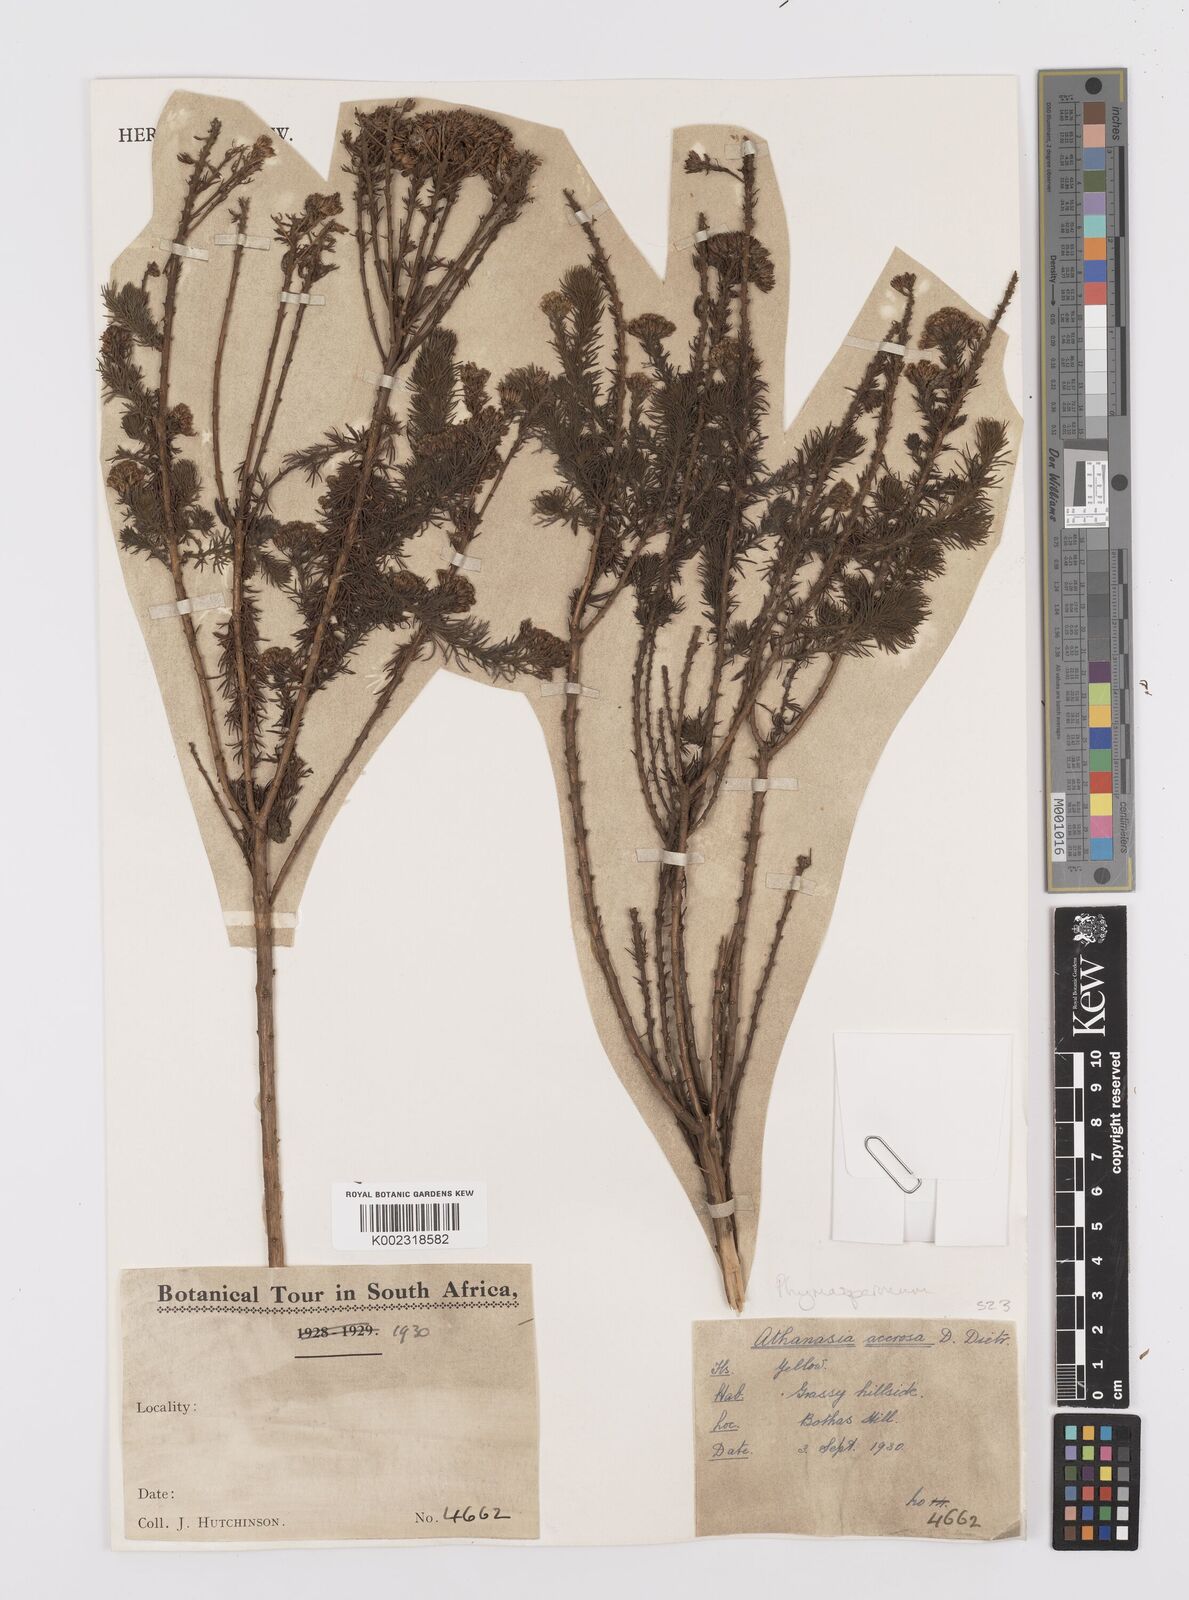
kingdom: Plantae
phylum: Tracheophyta
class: Magnoliopsida
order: Asterales
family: Asteraceae
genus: Phymaspermum
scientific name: Phymaspermum acerosum
